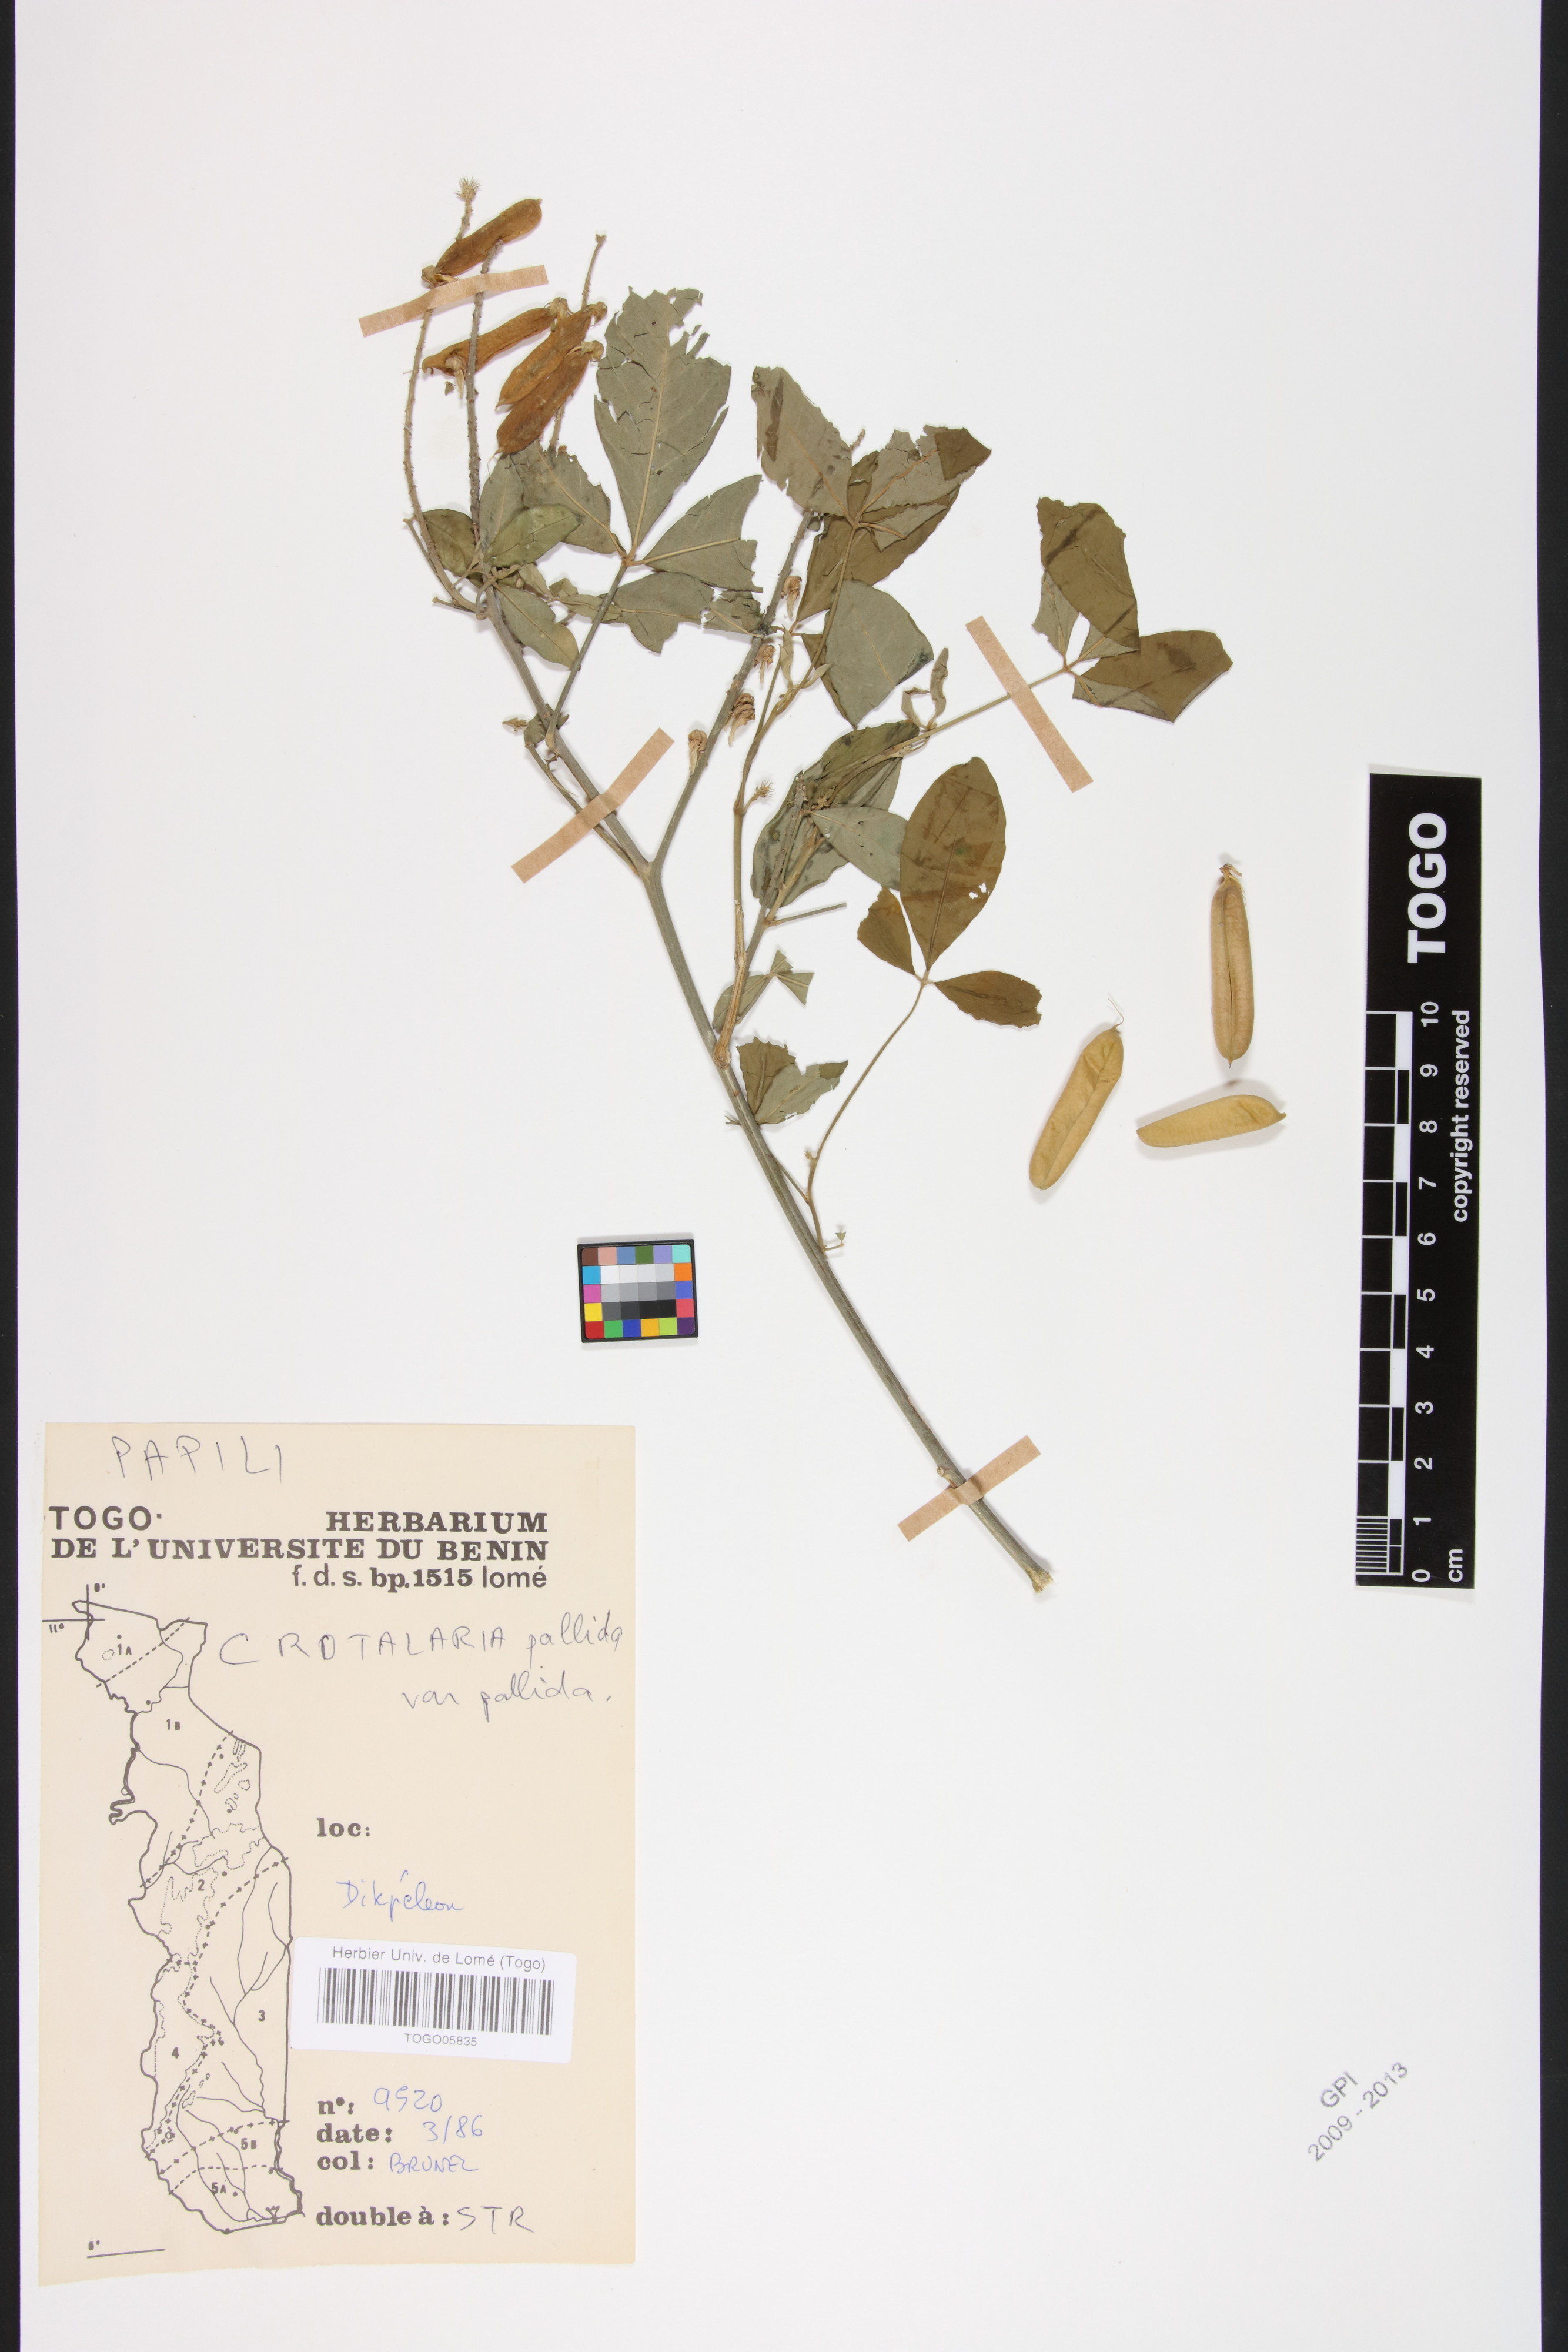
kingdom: Plantae
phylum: Tracheophyta
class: Magnoliopsida
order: Fabales
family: Fabaceae
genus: Crotalaria
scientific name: Crotalaria pallida
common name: Smooth rattlebox
